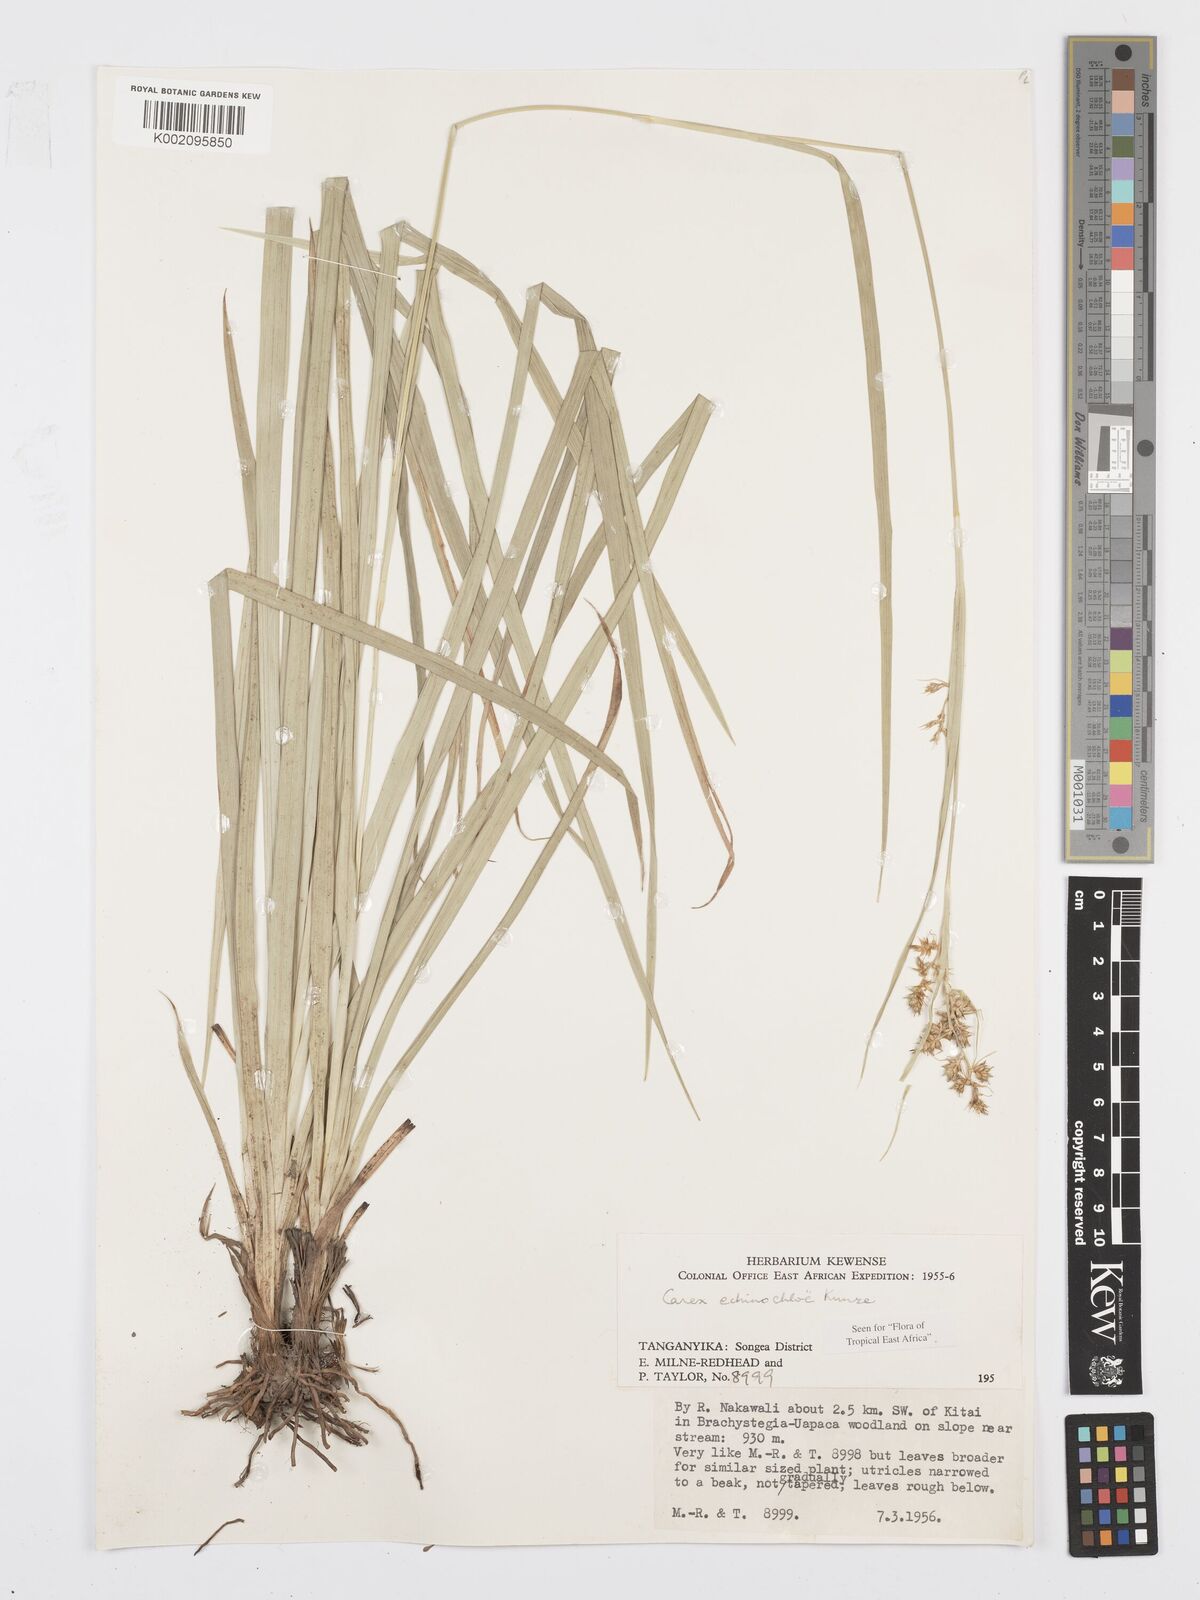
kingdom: Plantae
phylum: Tracheophyta
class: Liliopsida
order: Poales
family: Cyperaceae
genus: Carex
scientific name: Carex echinochloe
